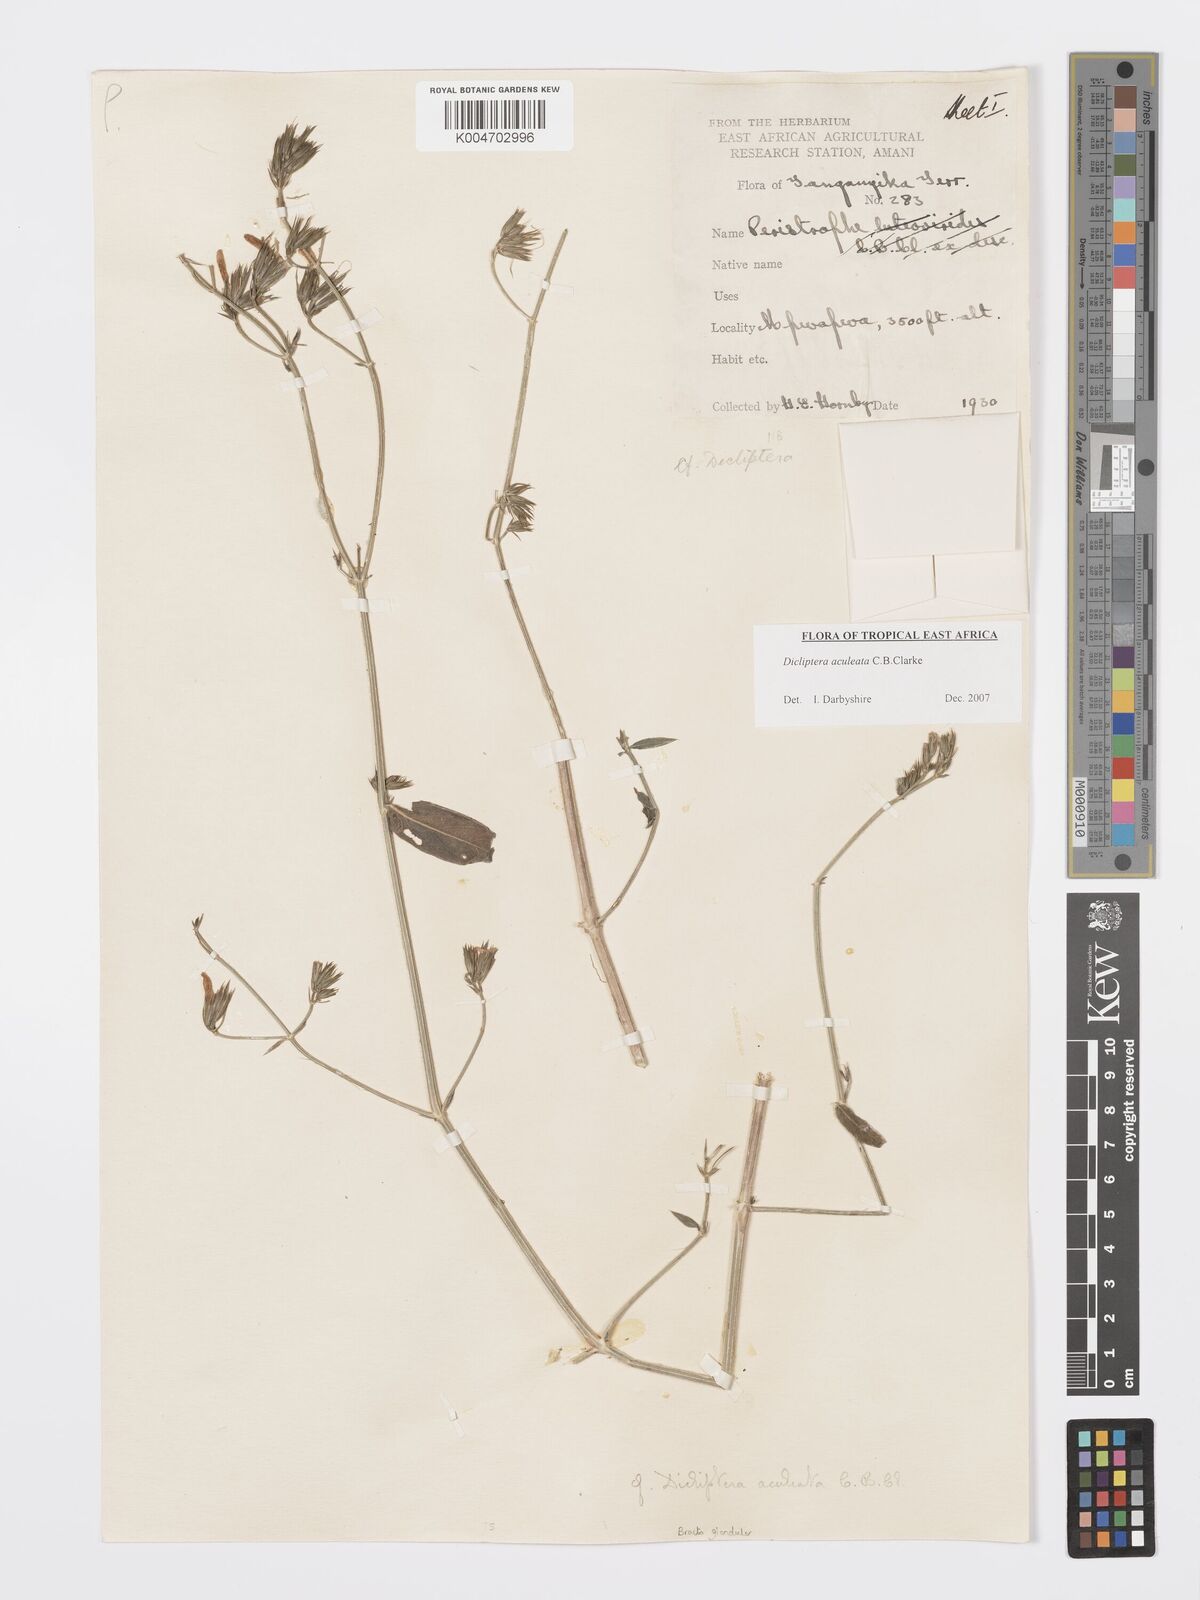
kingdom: Plantae
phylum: Tracheophyta
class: Magnoliopsida
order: Lamiales
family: Acanthaceae
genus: Dicliptera
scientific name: Dicliptera hensii
